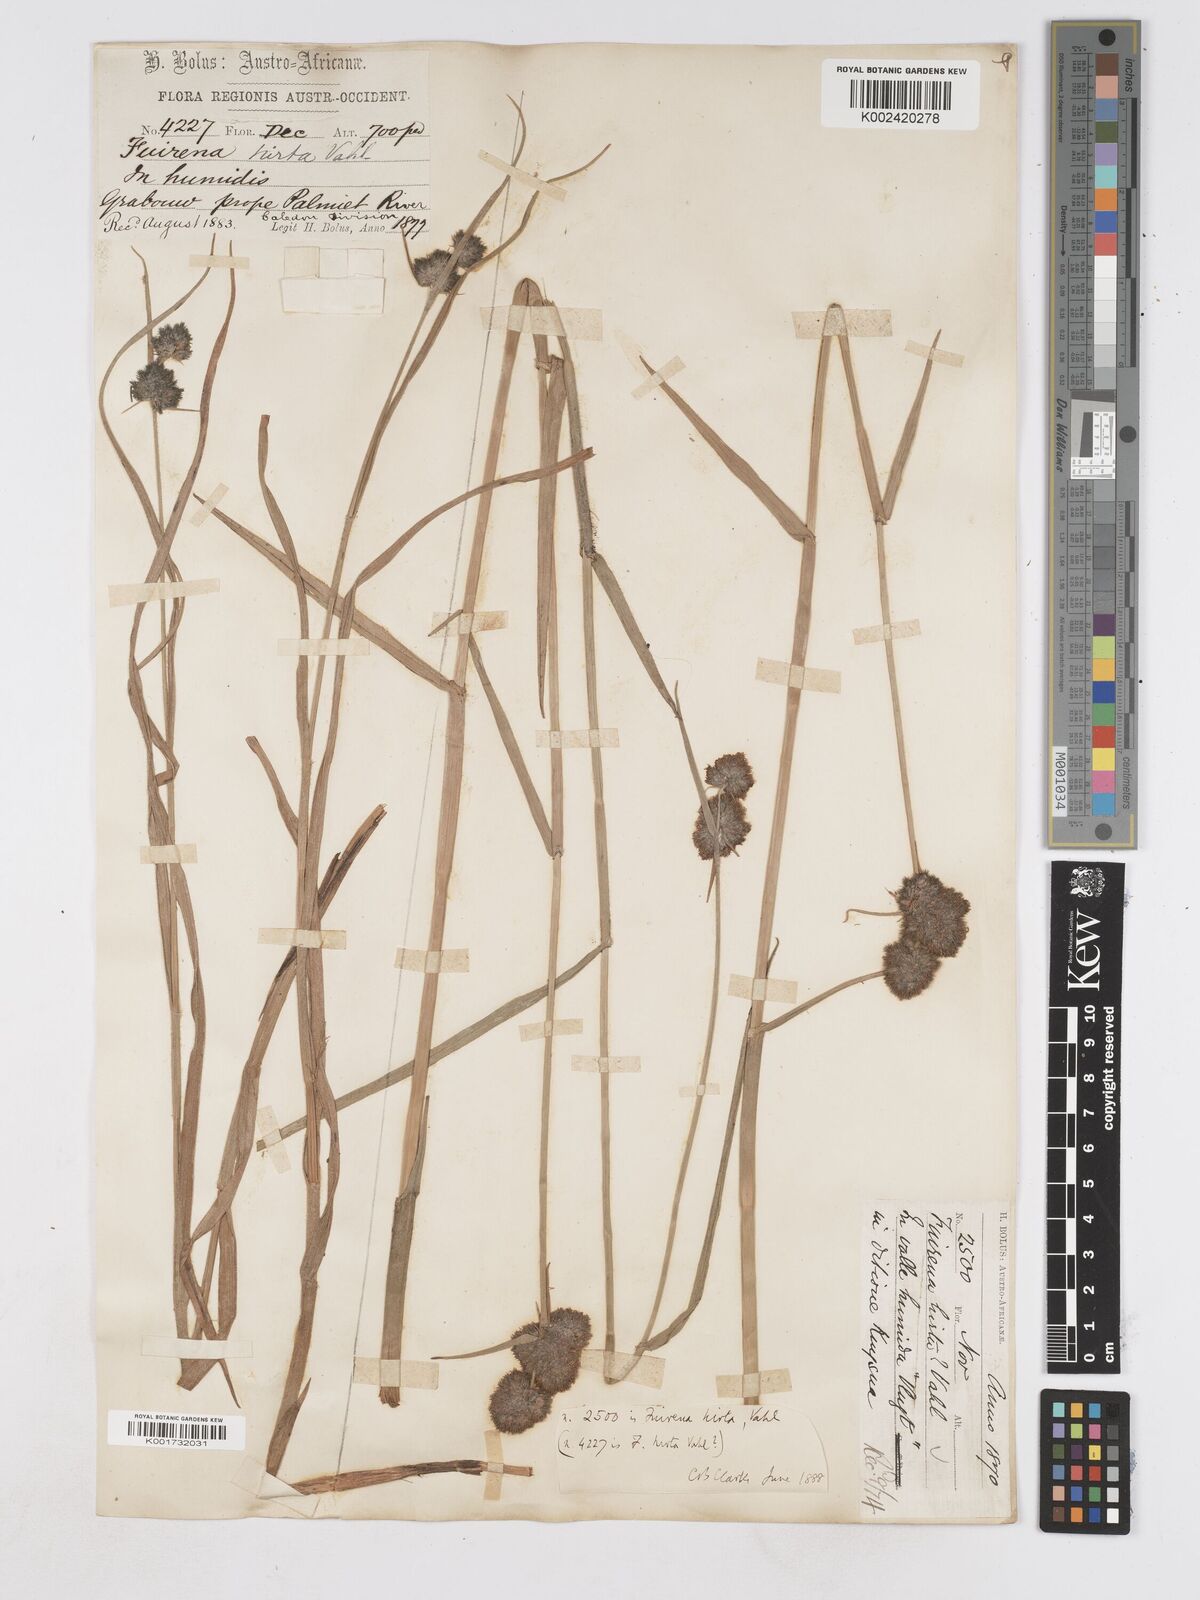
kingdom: Plantae
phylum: Tracheophyta
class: Liliopsida
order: Poales
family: Cyperaceae
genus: Fuirena
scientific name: Fuirena hirsuta
